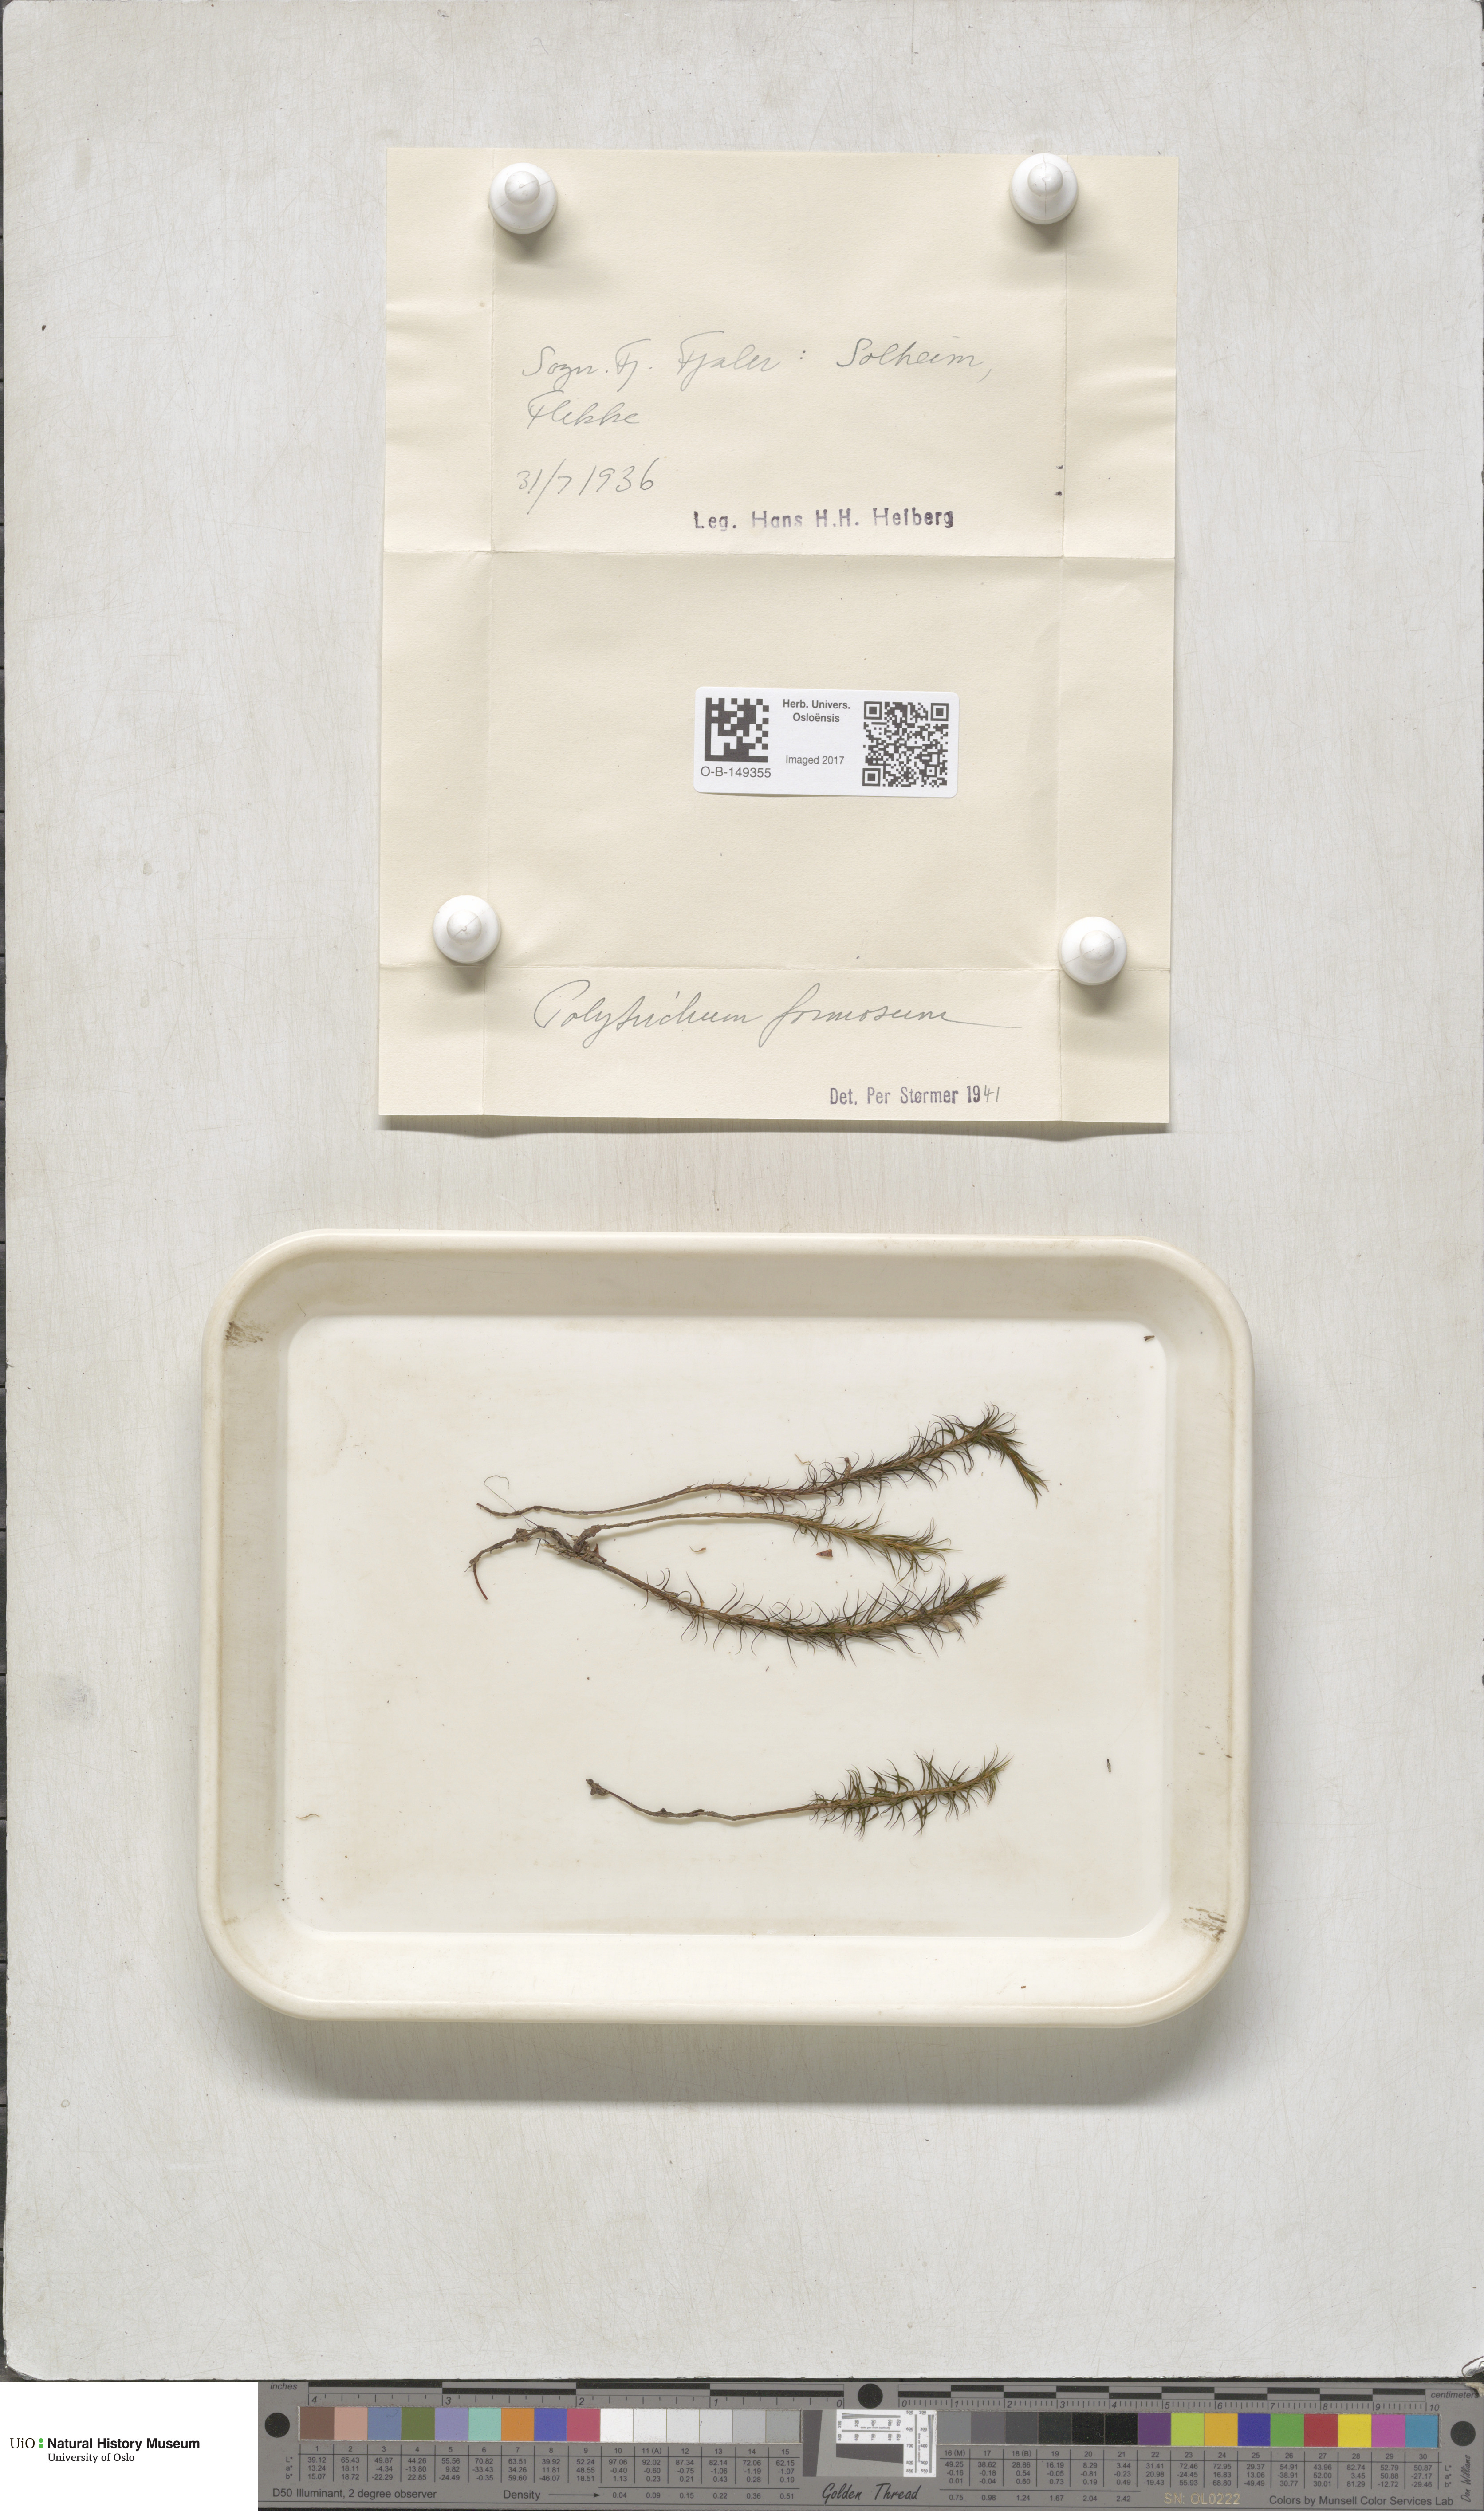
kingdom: Plantae
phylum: Bryophyta
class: Polytrichopsida
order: Polytrichales
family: Polytrichaceae
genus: Polytrichum
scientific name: Polytrichum formosum
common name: Bank haircap moss
